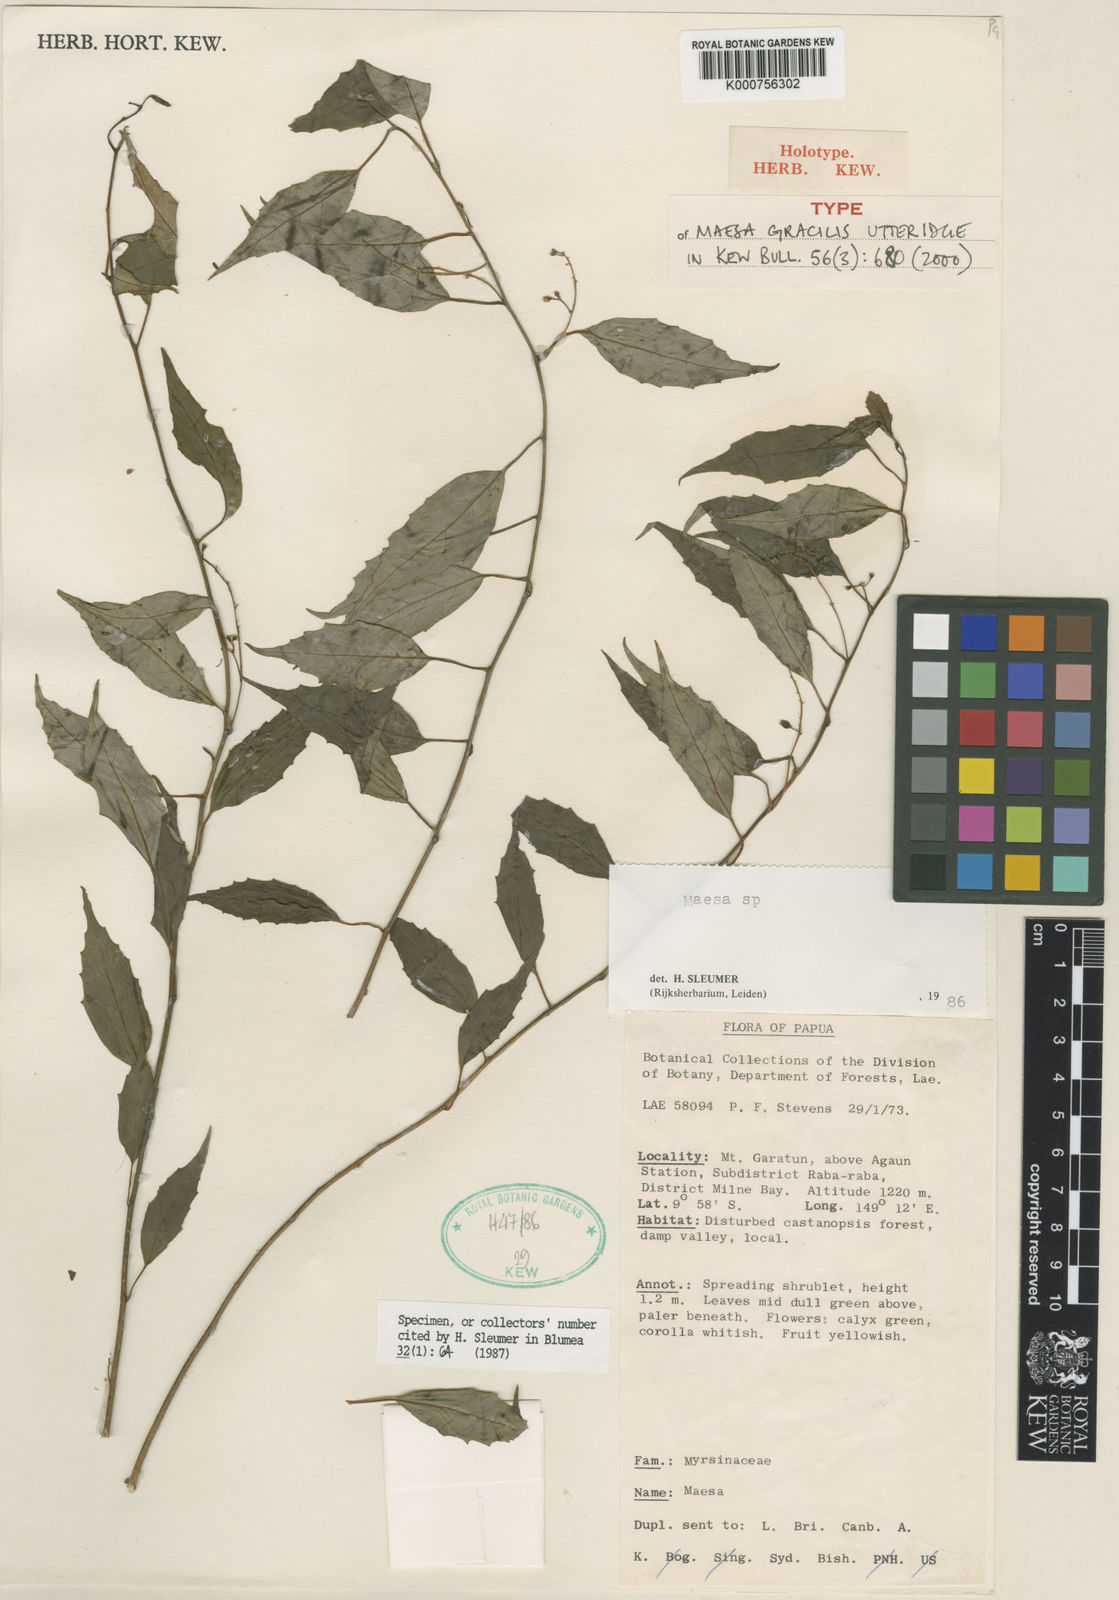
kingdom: Plantae
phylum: Tracheophyta
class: Magnoliopsida
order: Ericales
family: Primulaceae
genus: Maesa
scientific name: Maesa gracilis
